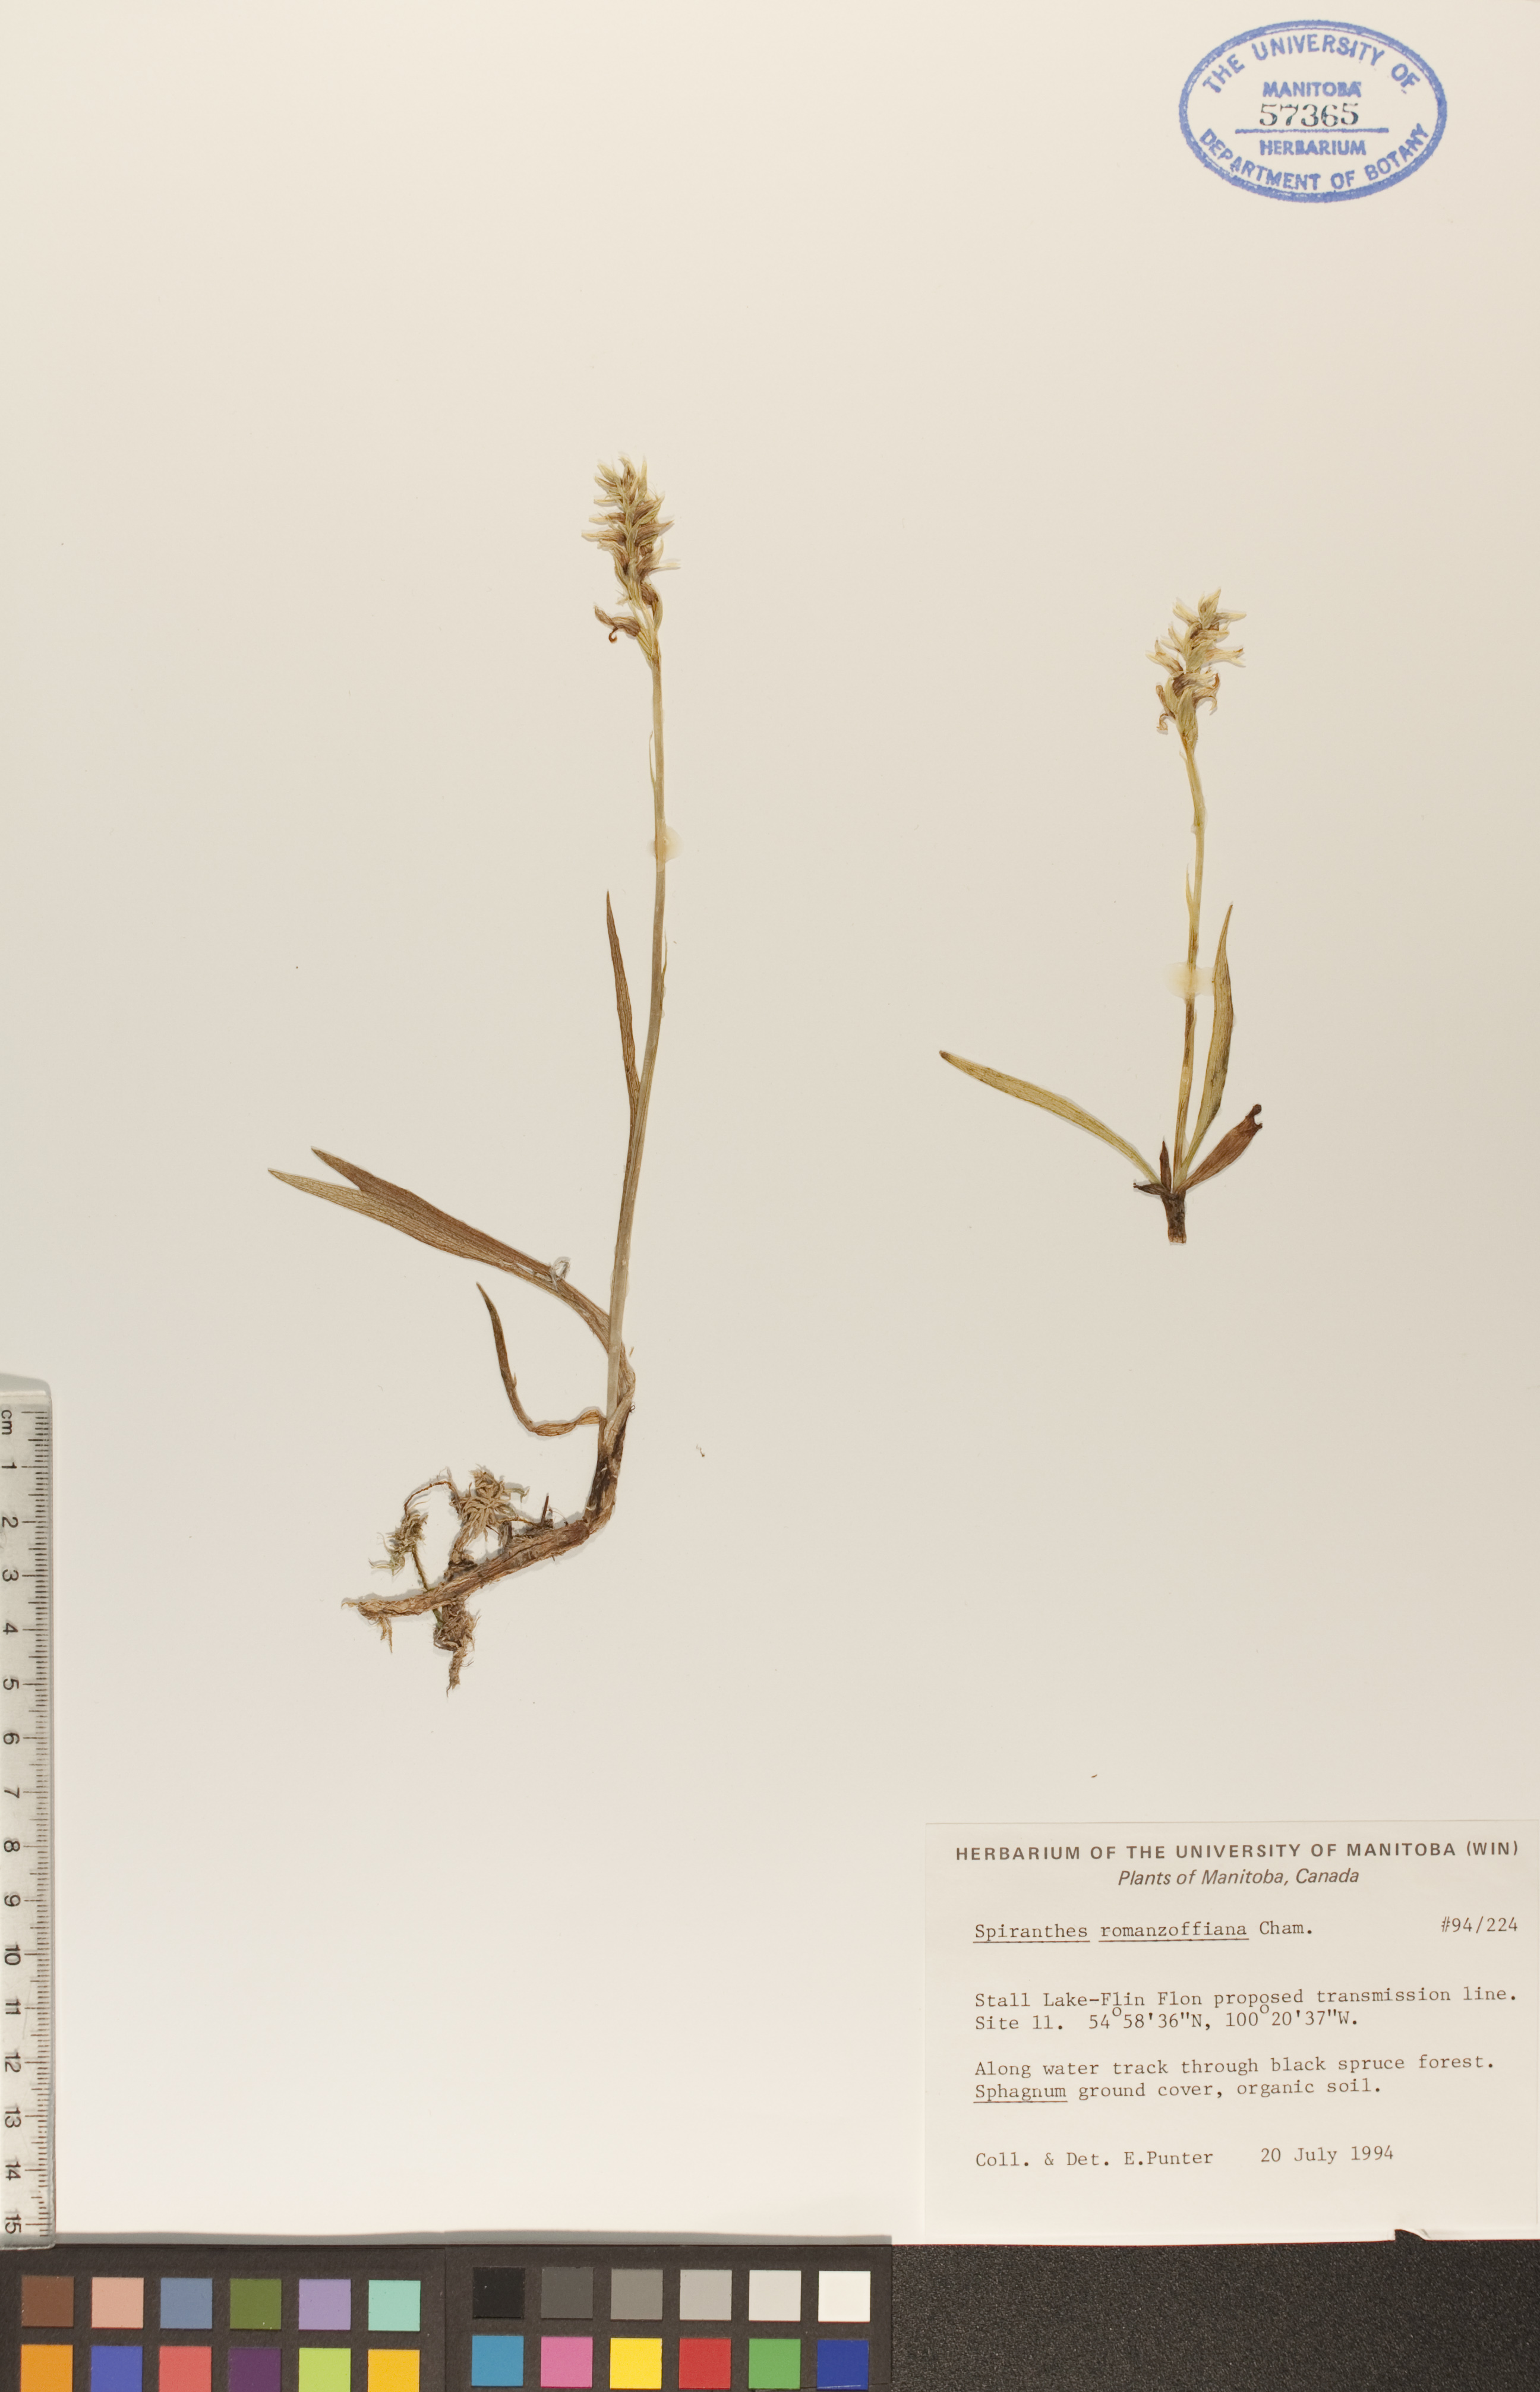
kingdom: Plantae
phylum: Tracheophyta
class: Liliopsida
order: Asparagales
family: Orchidaceae
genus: Spiranthes
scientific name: Spiranthes romanzoffiana
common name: Irish lady's-tresses
